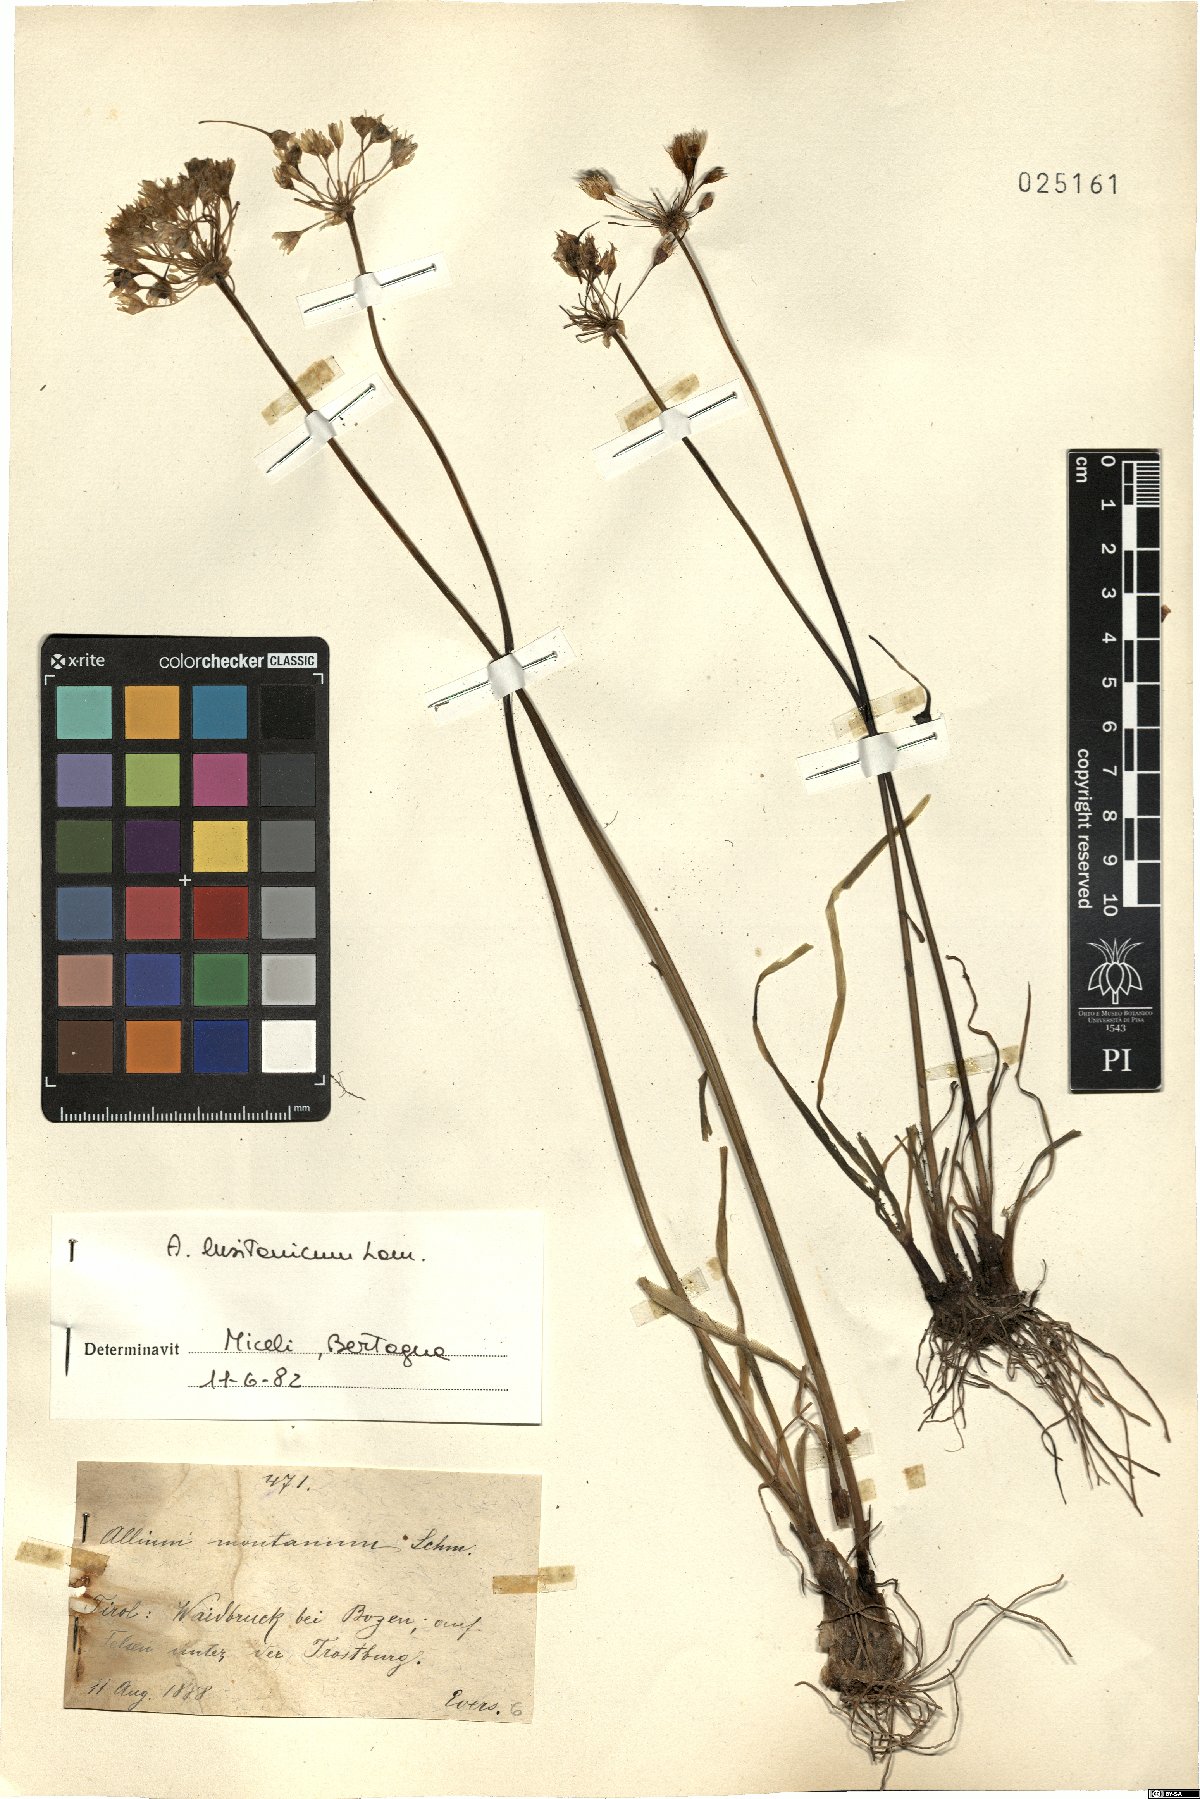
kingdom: Plantae
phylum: Tracheophyta
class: Liliopsida
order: Asparagales
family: Amaryllidaceae
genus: Allium
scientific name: Allium lusitanicum
